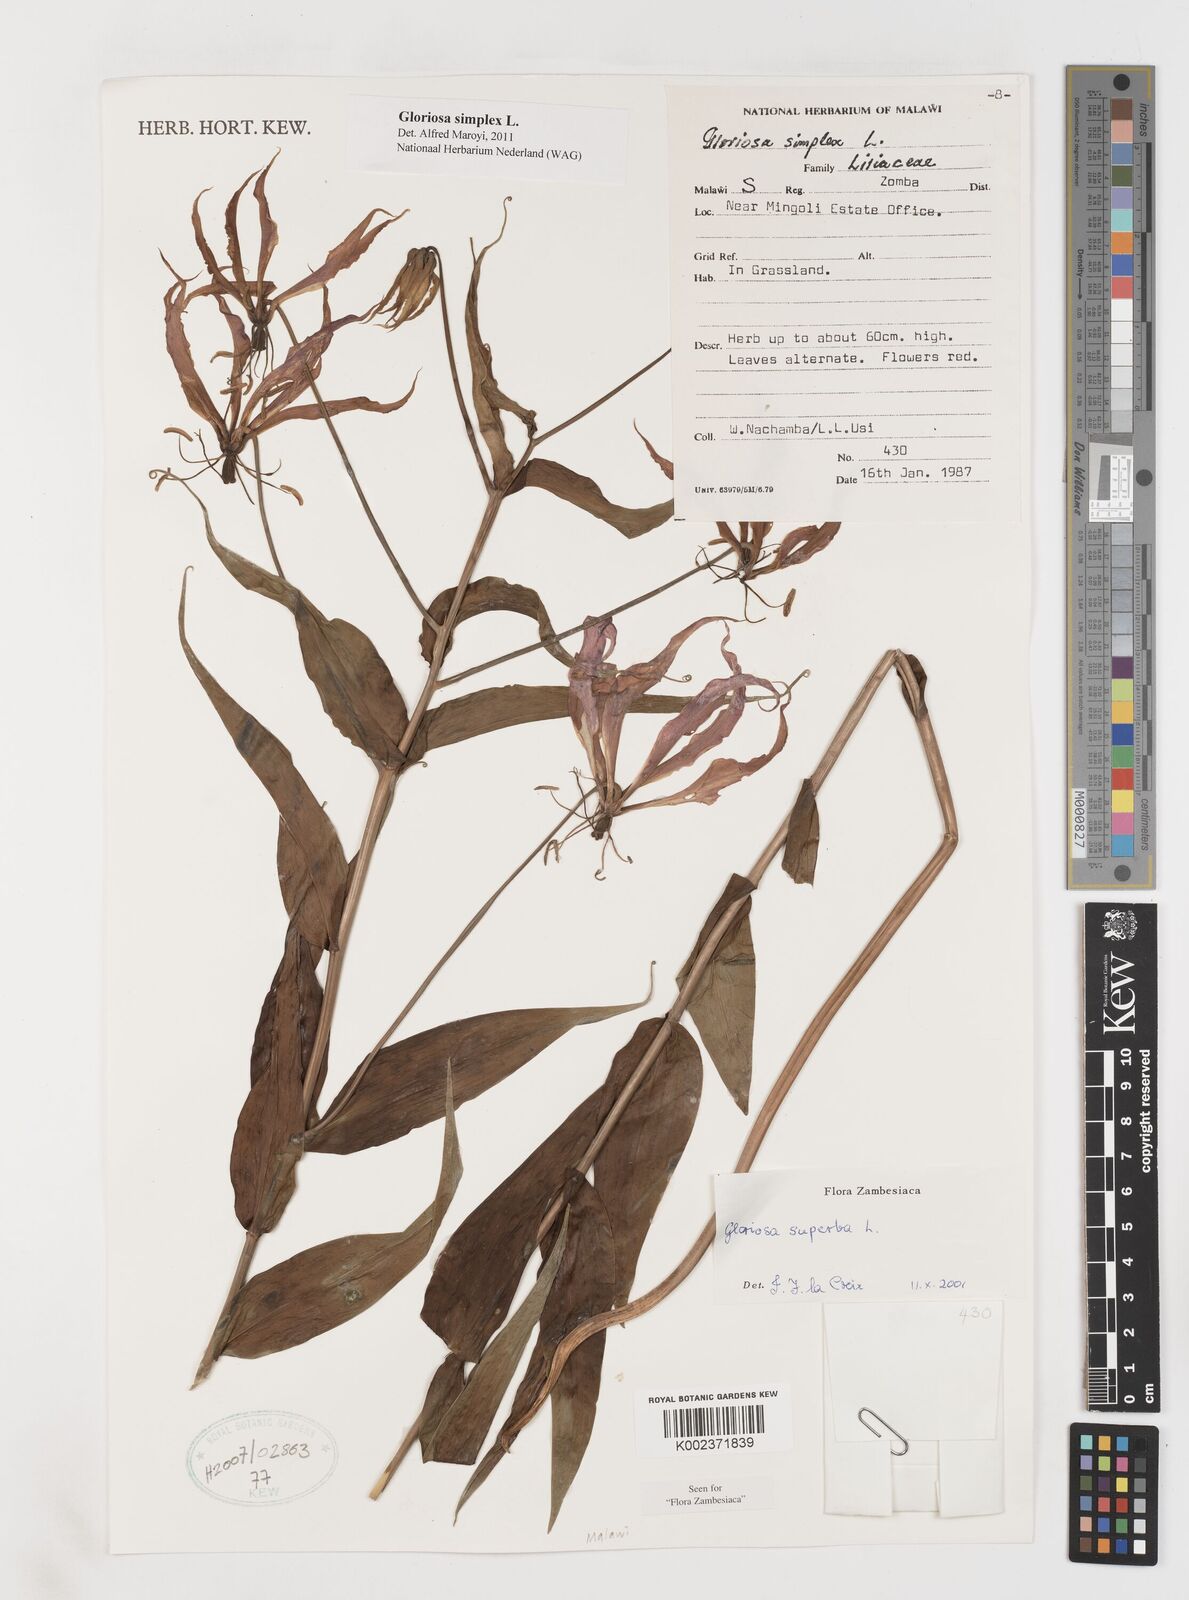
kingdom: Plantae
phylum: Tracheophyta
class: Liliopsida
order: Liliales
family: Colchicaceae
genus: Gloriosa
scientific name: Gloriosa simplex
